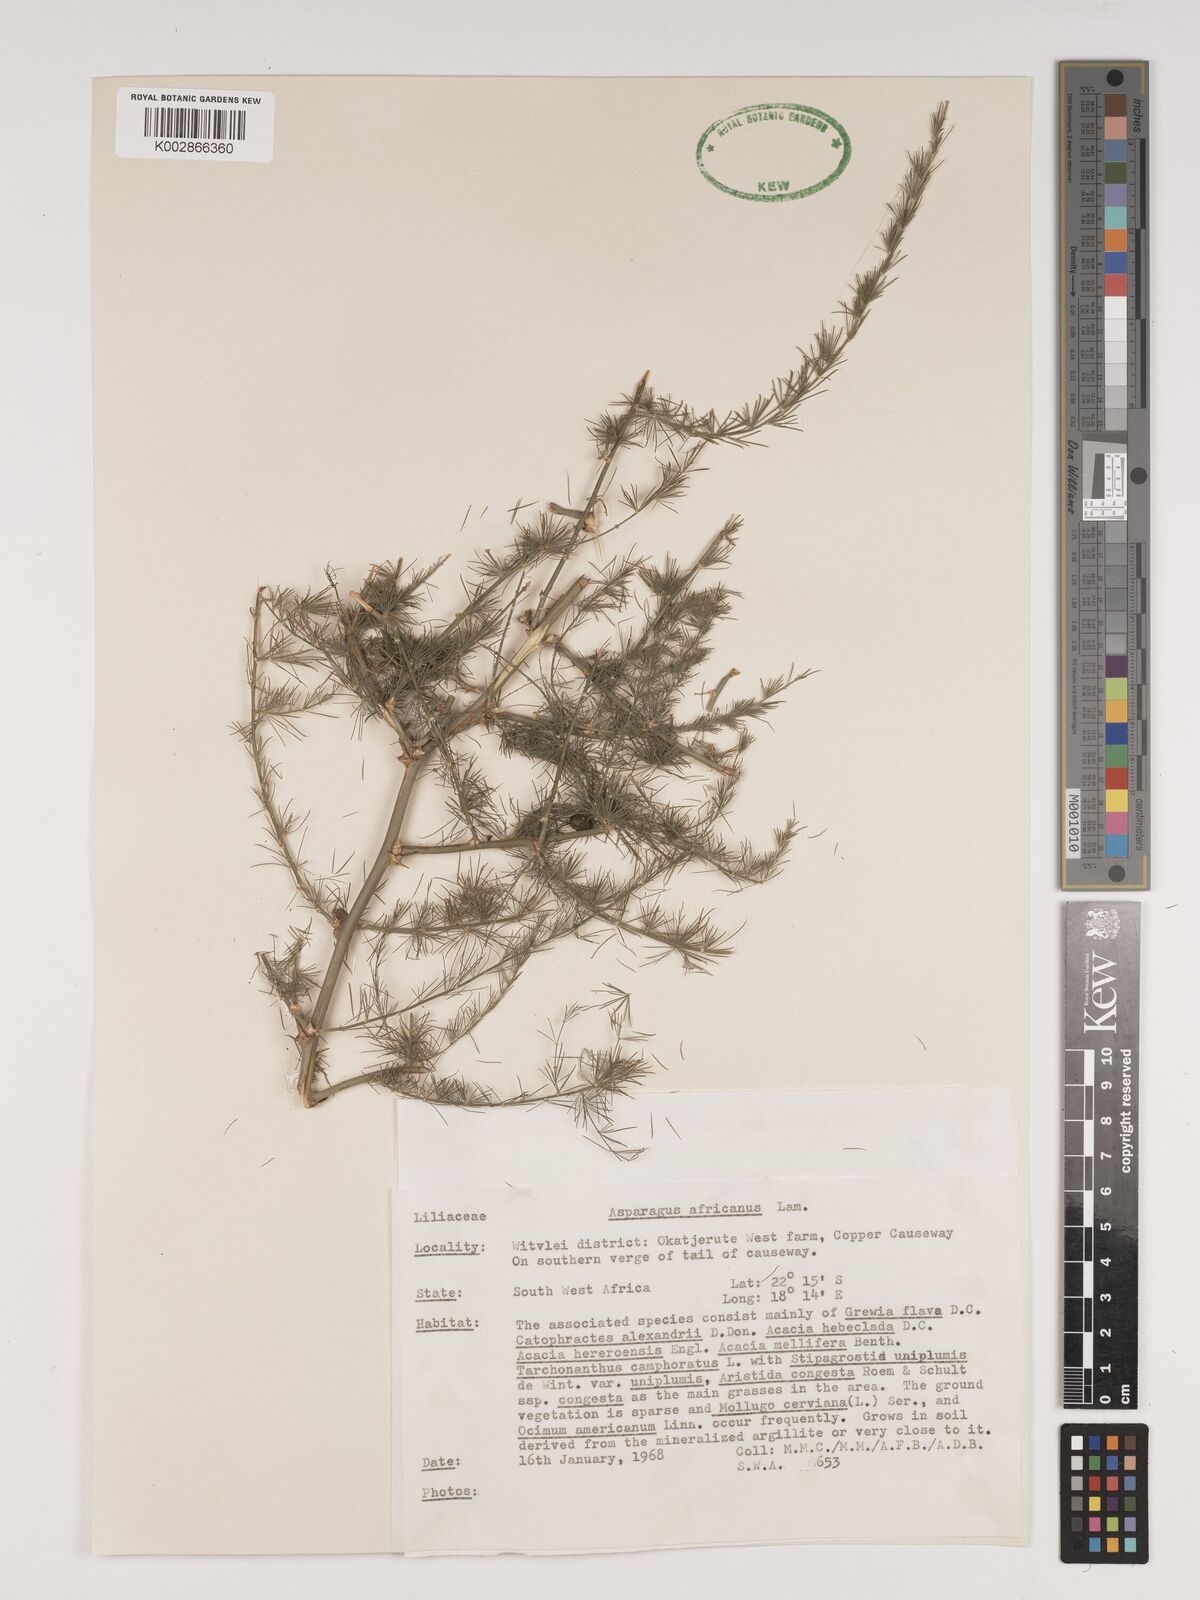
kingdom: Plantae
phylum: Tracheophyta
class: Liliopsida
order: Asparagales
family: Asparagaceae
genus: Asparagus
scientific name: Asparagus africanus
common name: Asparagus-fern
